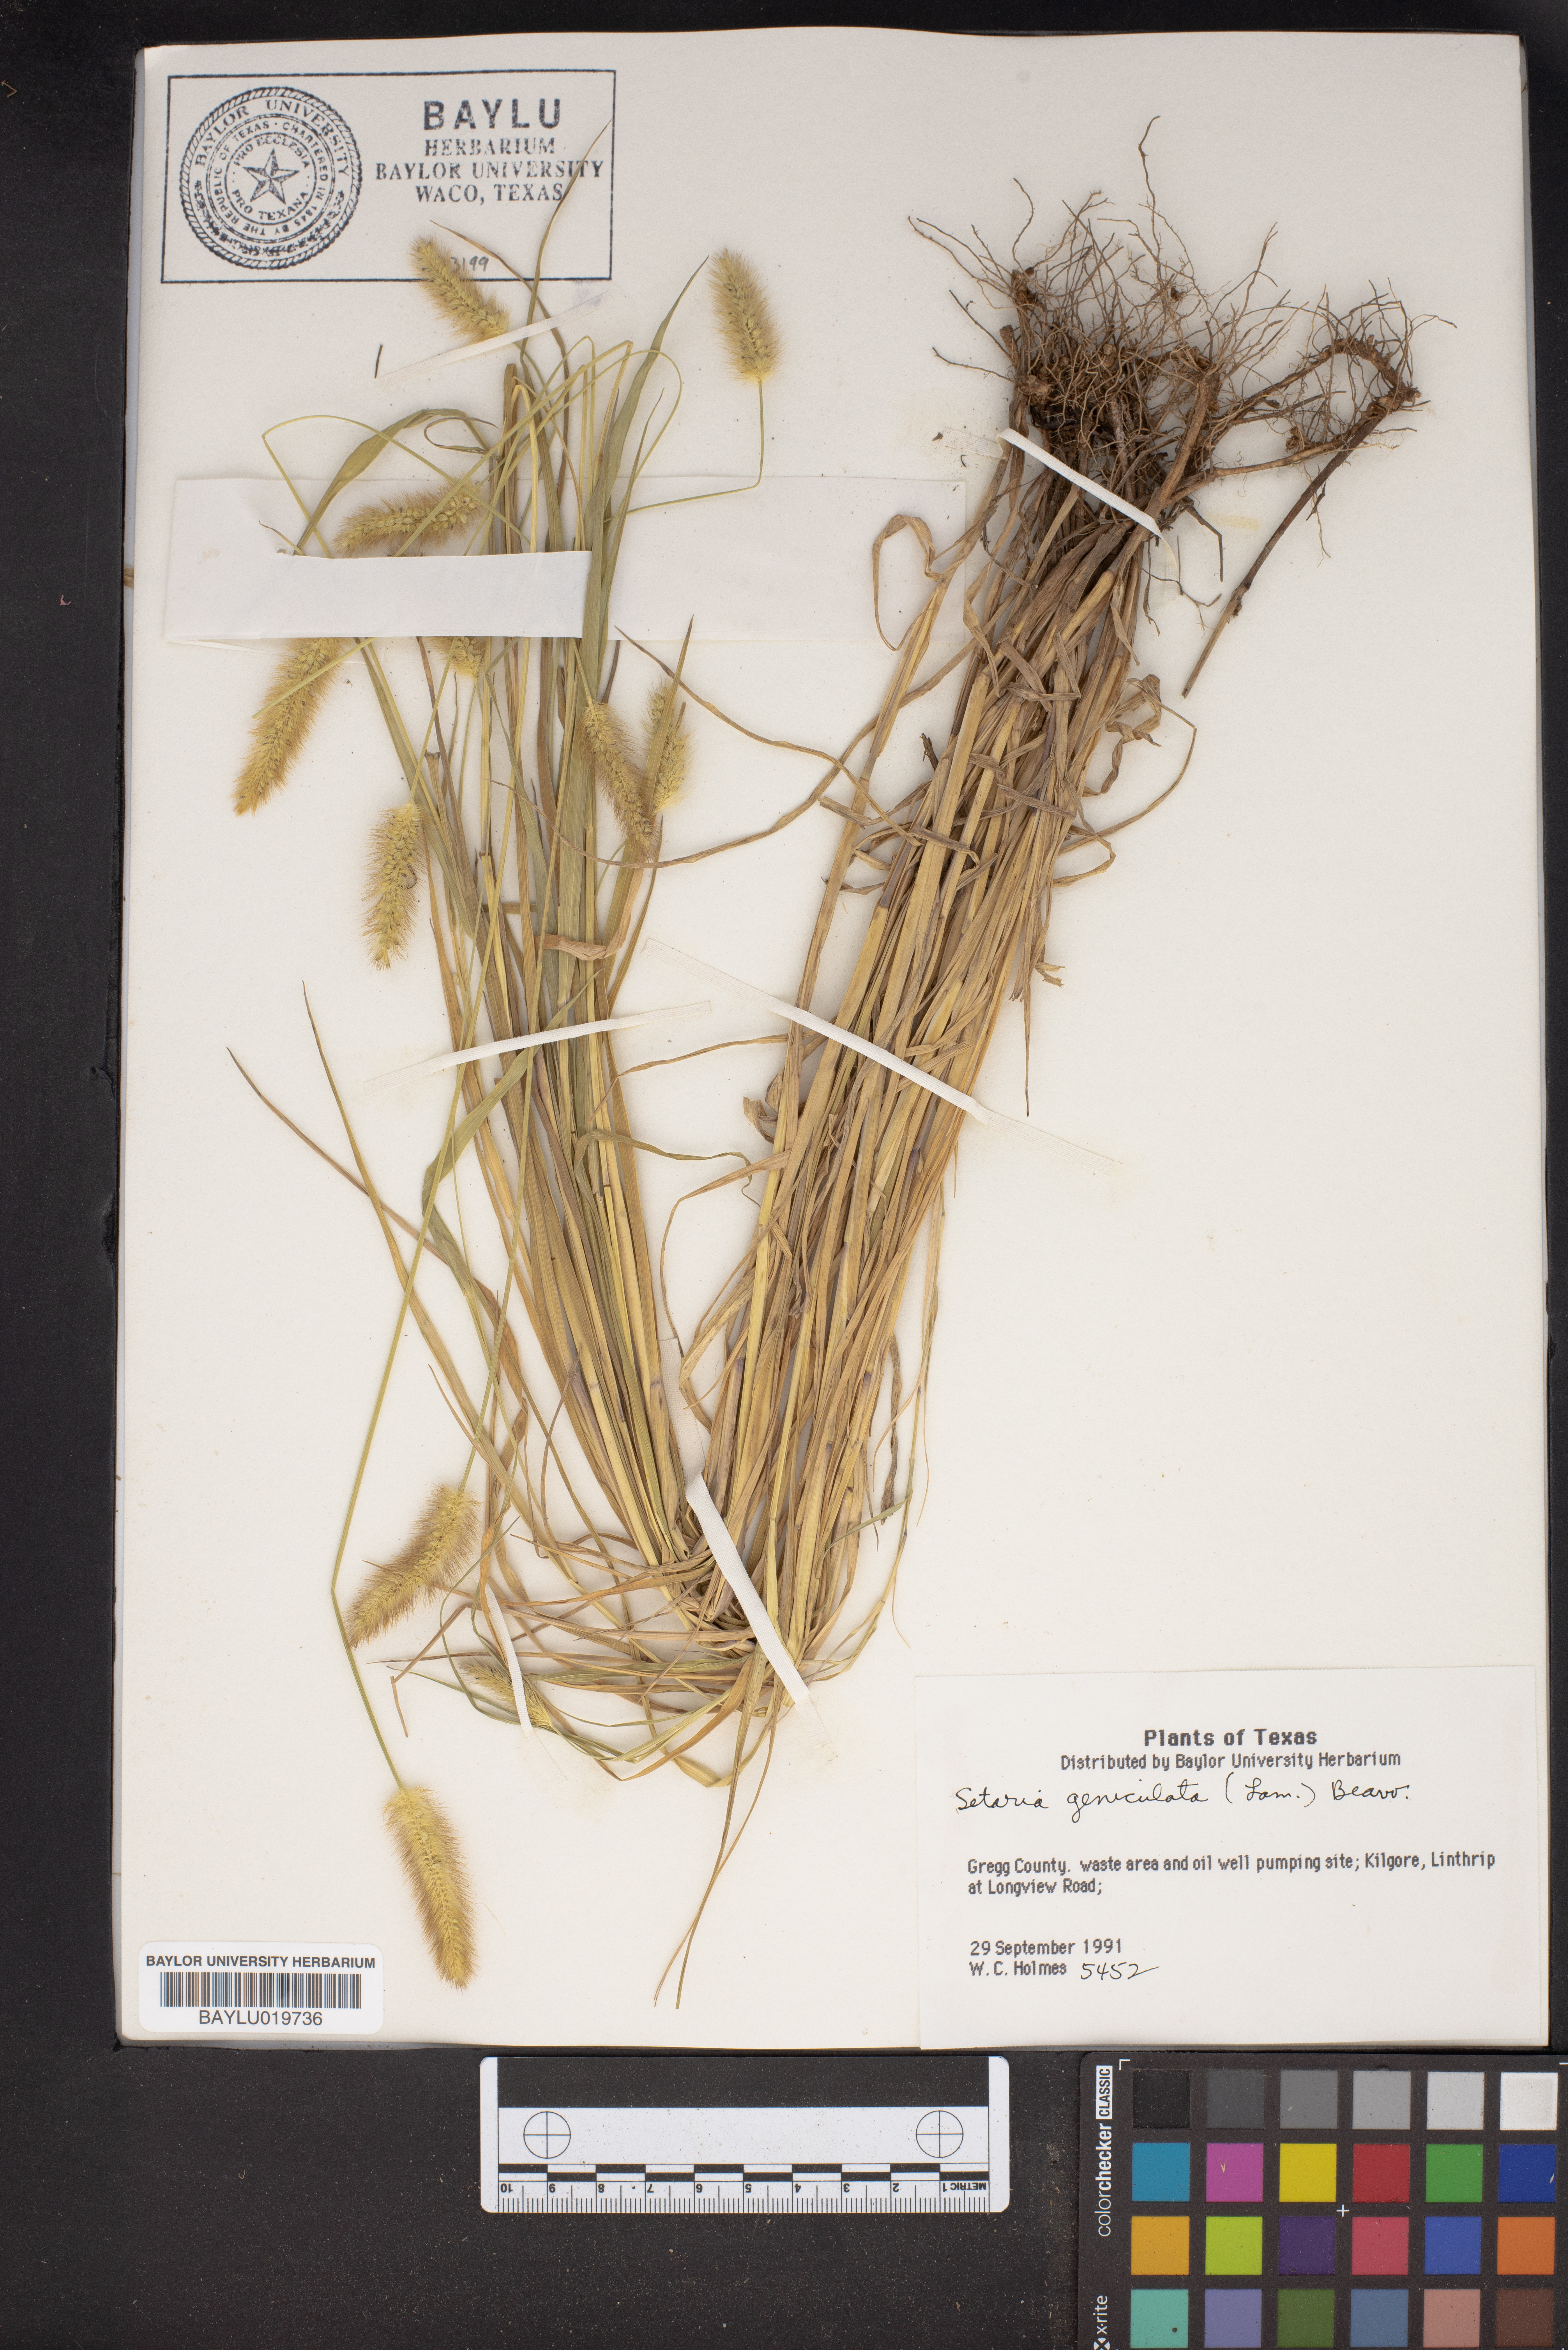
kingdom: Plantae
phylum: Tracheophyta
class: Liliopsida
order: Poales
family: Poaceae
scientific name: Poaceae
